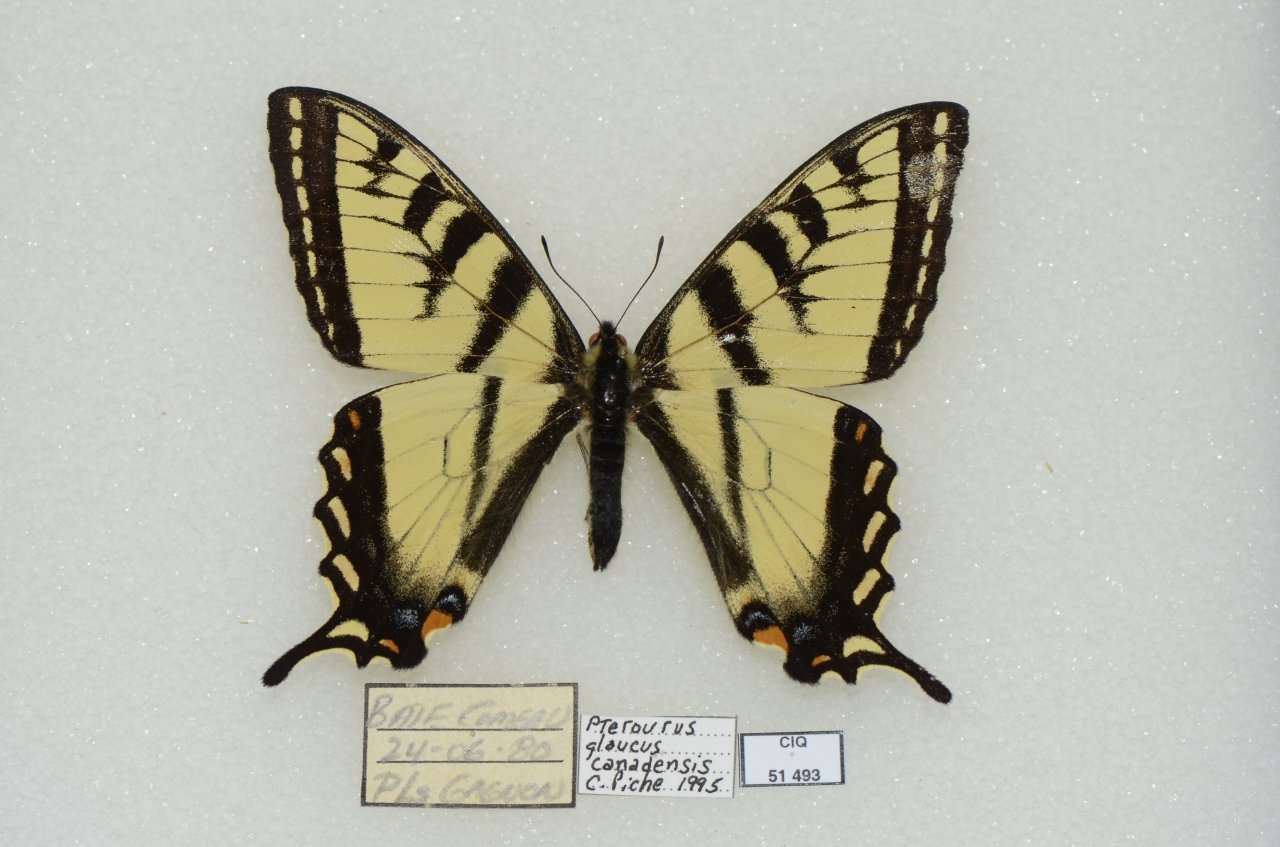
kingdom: Animalia
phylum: Arthropoda
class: Insecta
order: Lepidoptera
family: Papilionidae
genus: Pterourus
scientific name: Pterourus canadensis
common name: Canadian Tiger Swallowtail
